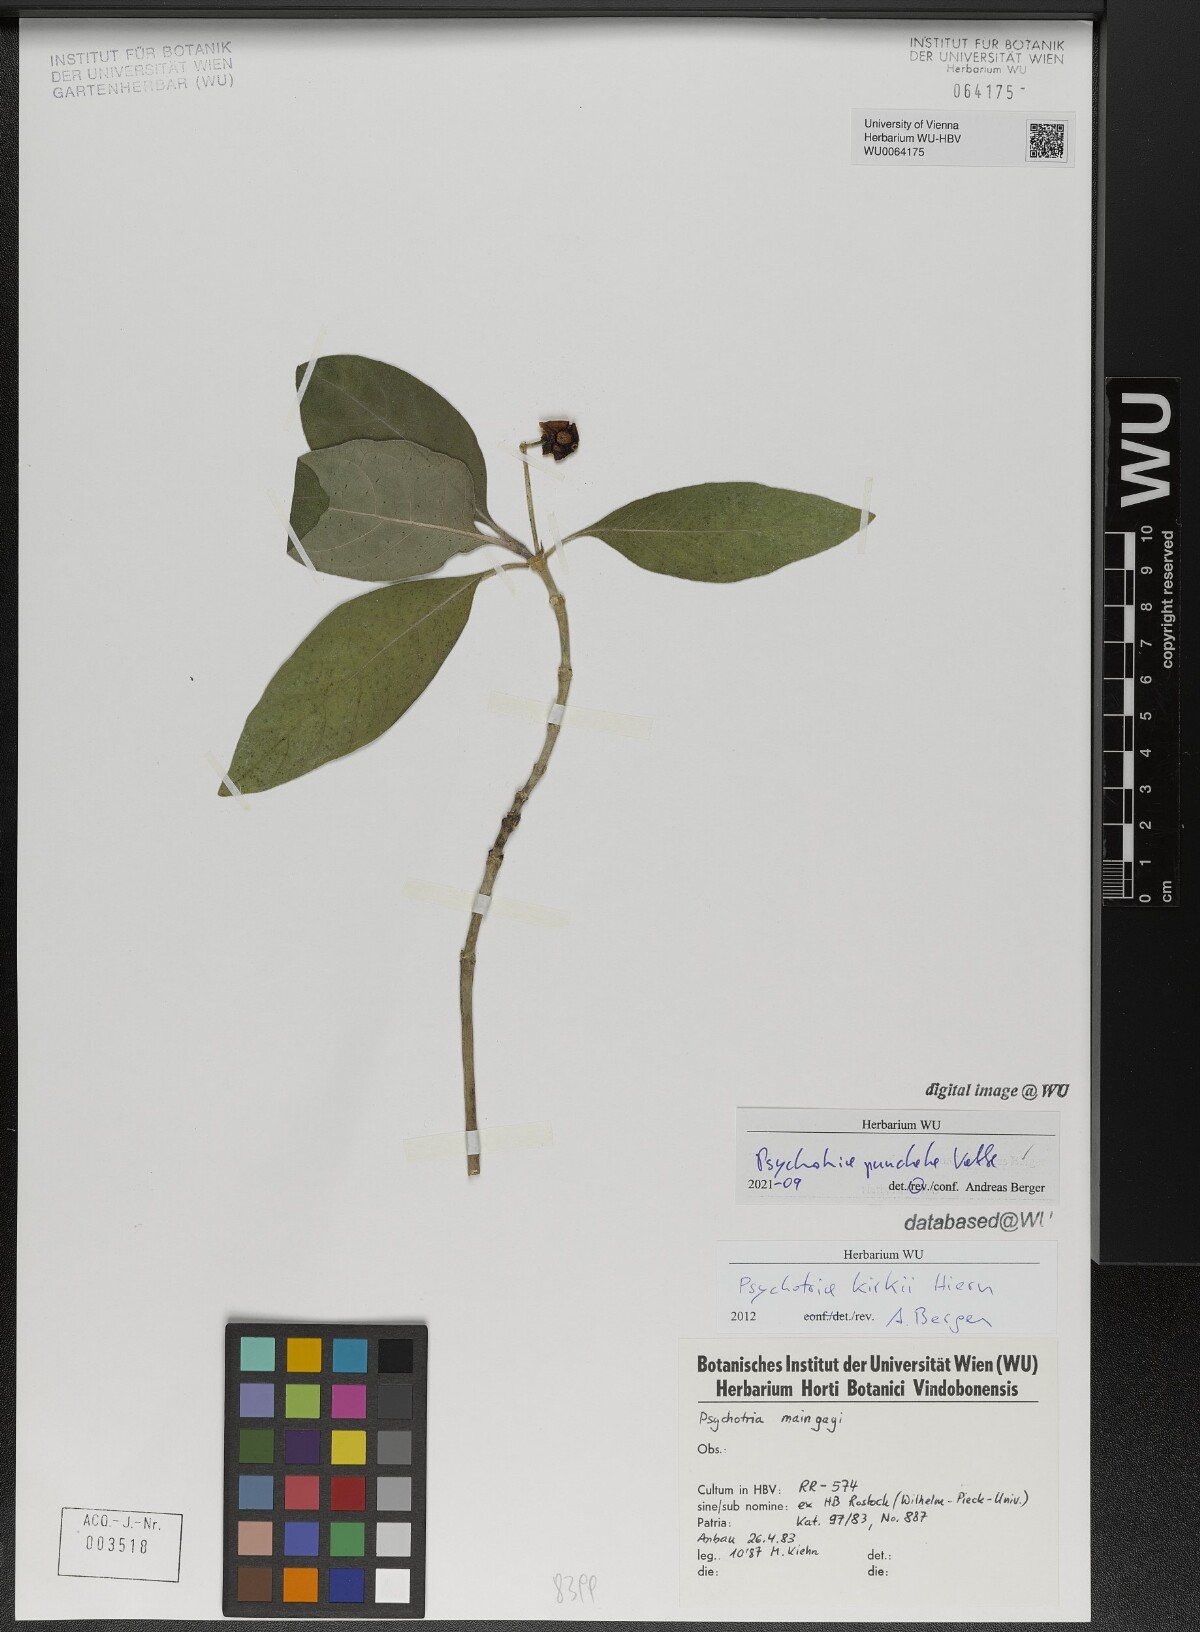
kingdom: Plantae
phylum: Tracheophyta
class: Magnoliopsida
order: Gentianales
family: Rubiaceae
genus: Psychotria
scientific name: Psychotria punctata
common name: Dotted wild coffee
